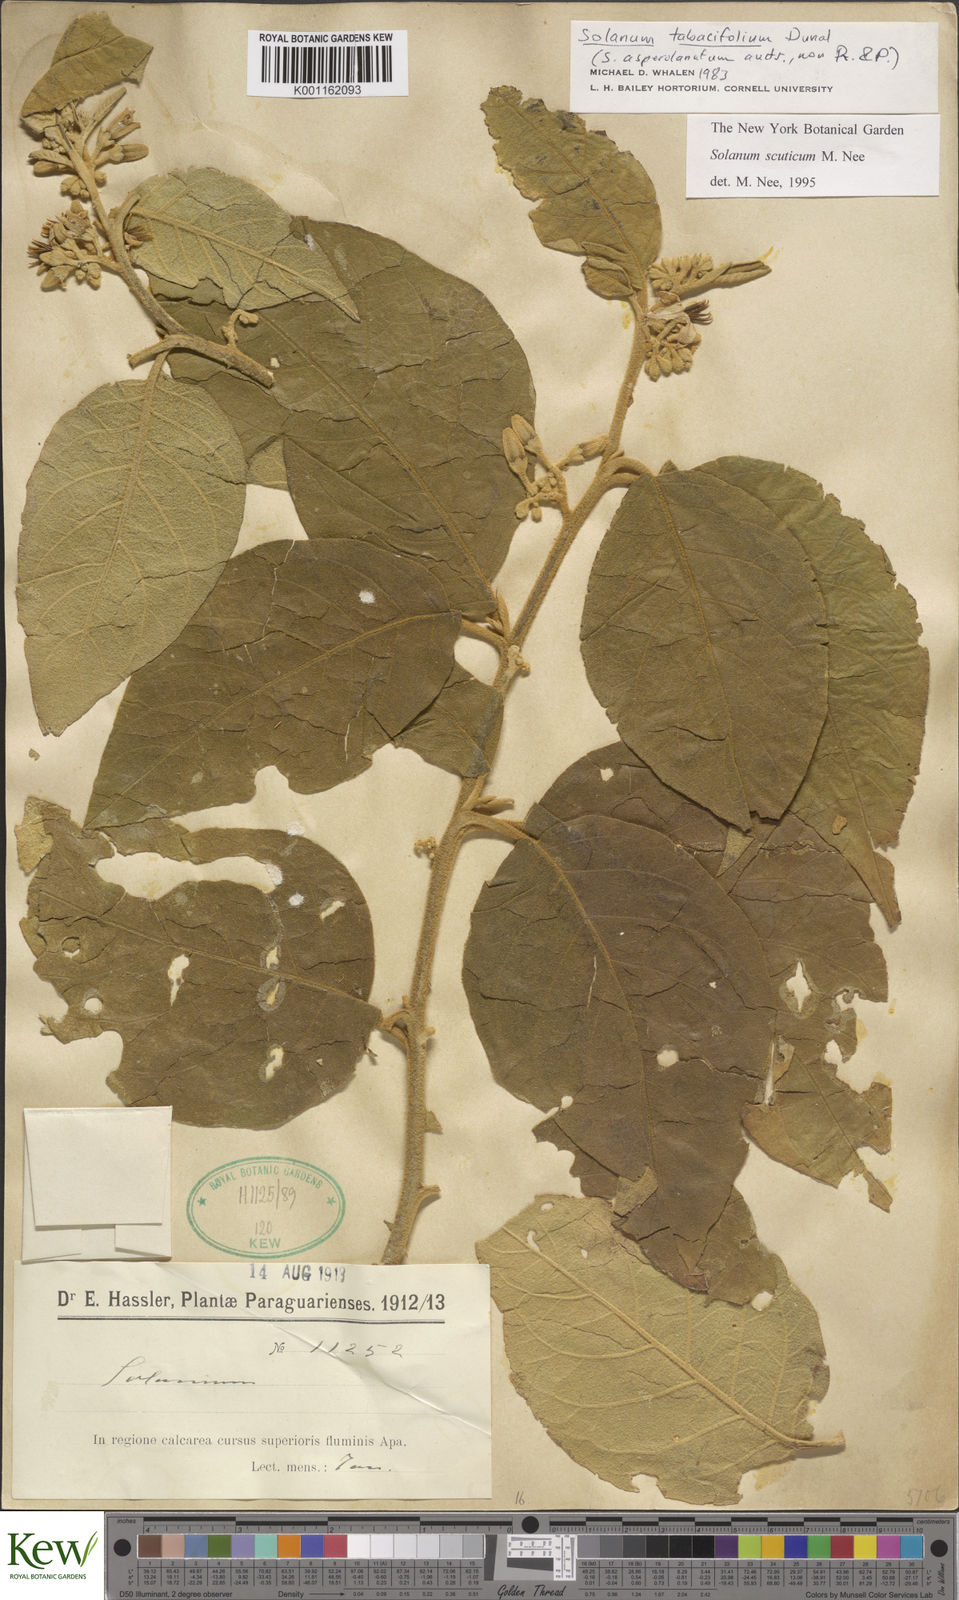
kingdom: Plantae
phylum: Tracheophyta
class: Magnoliopsida
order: Solanales
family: Solanaceae
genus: Solanum
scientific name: Solanum scuticum
